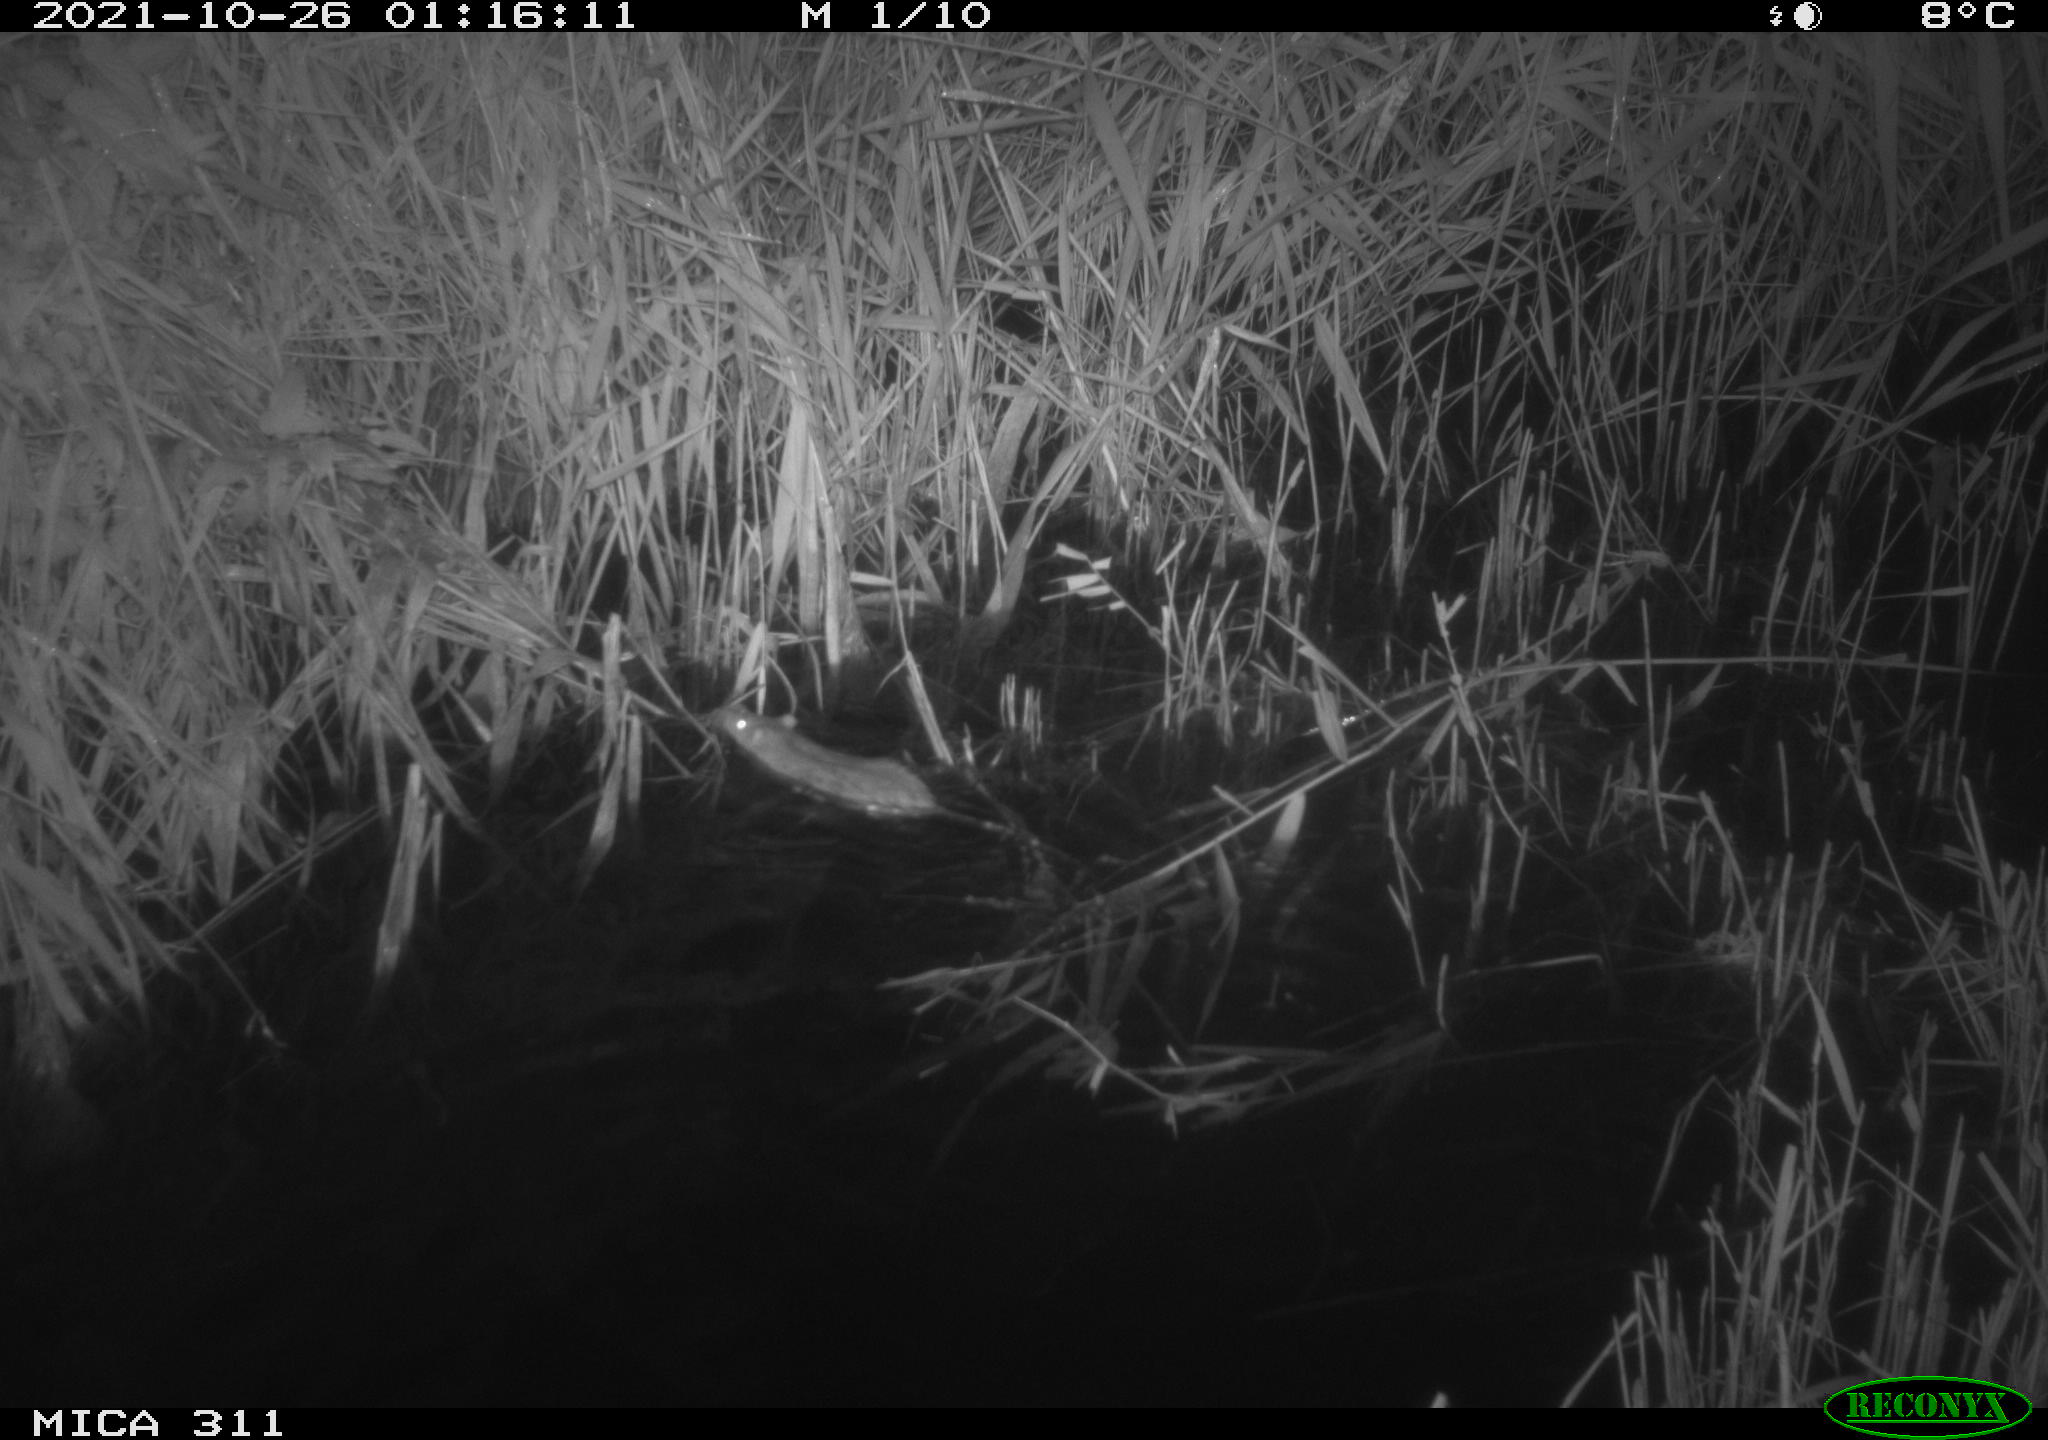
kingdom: Animalia
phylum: Chordata
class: Mammalia
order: Rodentia
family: Muridae
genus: Rattus
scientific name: Rattus norvegicus
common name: Brown rat
